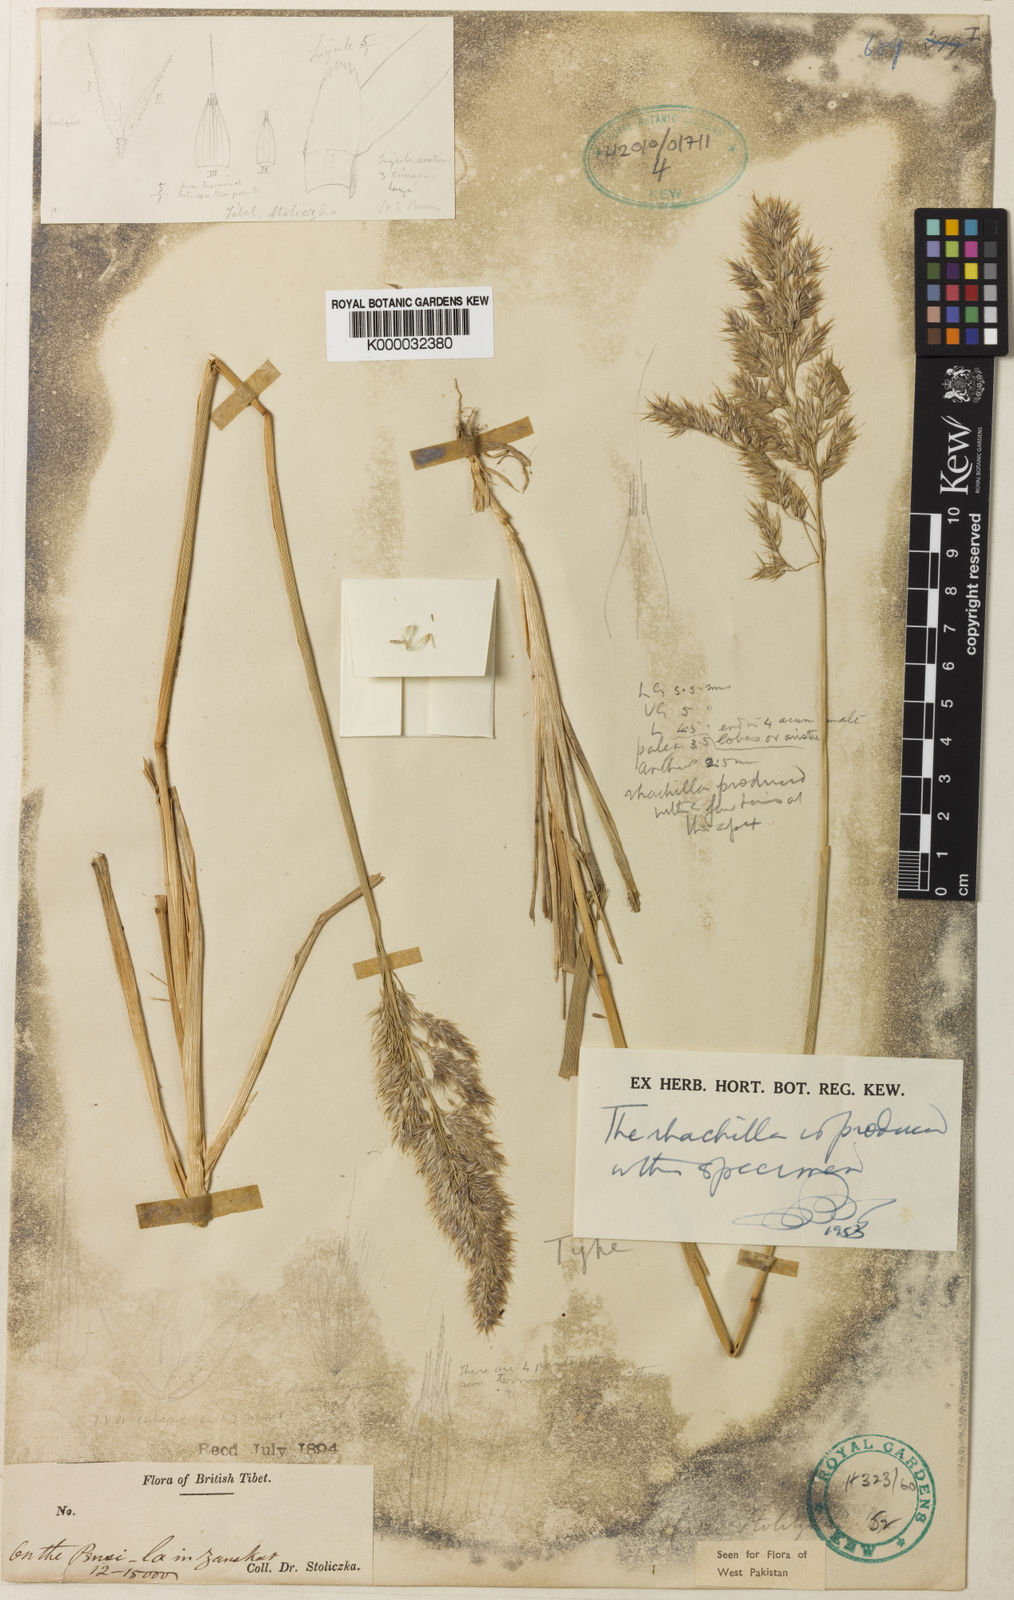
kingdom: Plantae
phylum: Tracheophyta
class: Liliopsida
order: Poales
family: Poaceae
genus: Calamagrostis
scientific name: Calamagrostis
